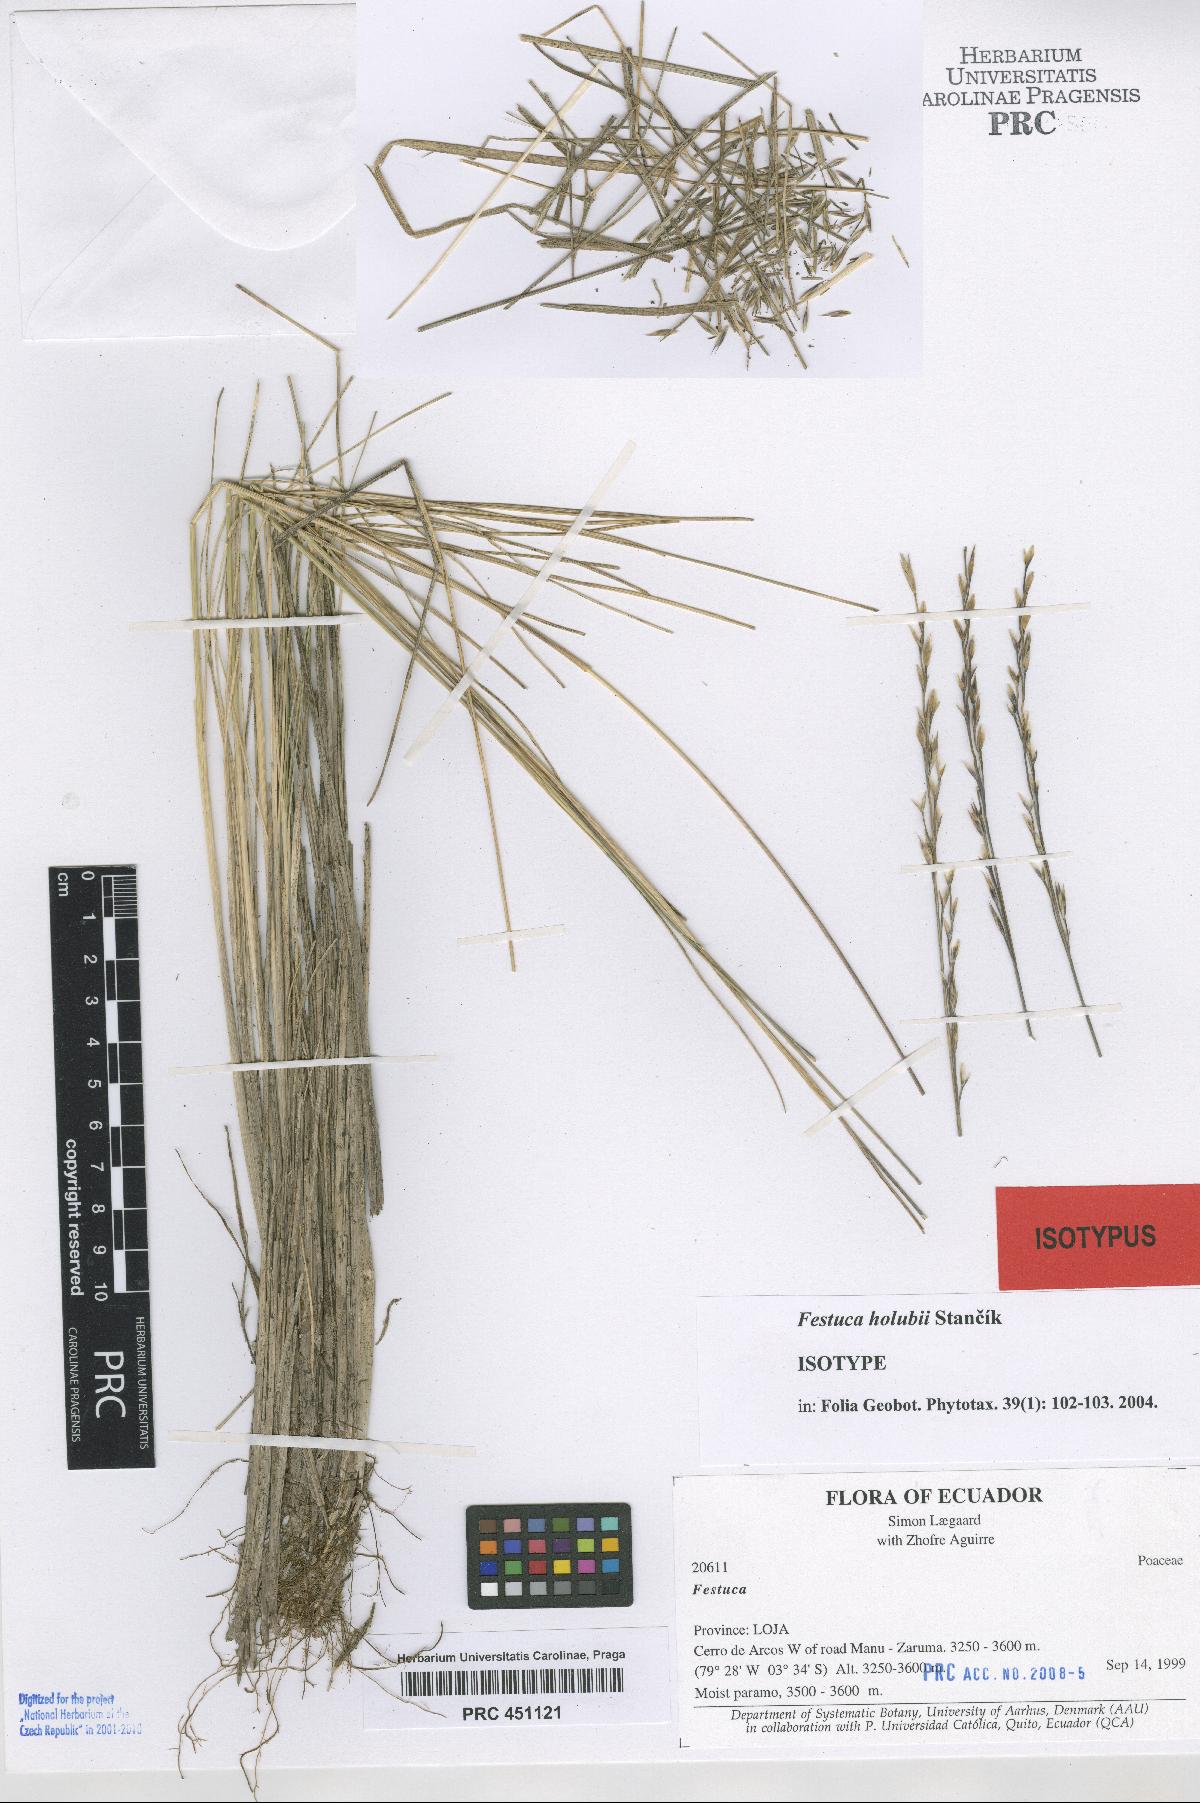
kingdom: Plantae
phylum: Tracheophyta
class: Liliopsida
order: Poales
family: Poaceae
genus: Festuca
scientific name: Festuca holubii
